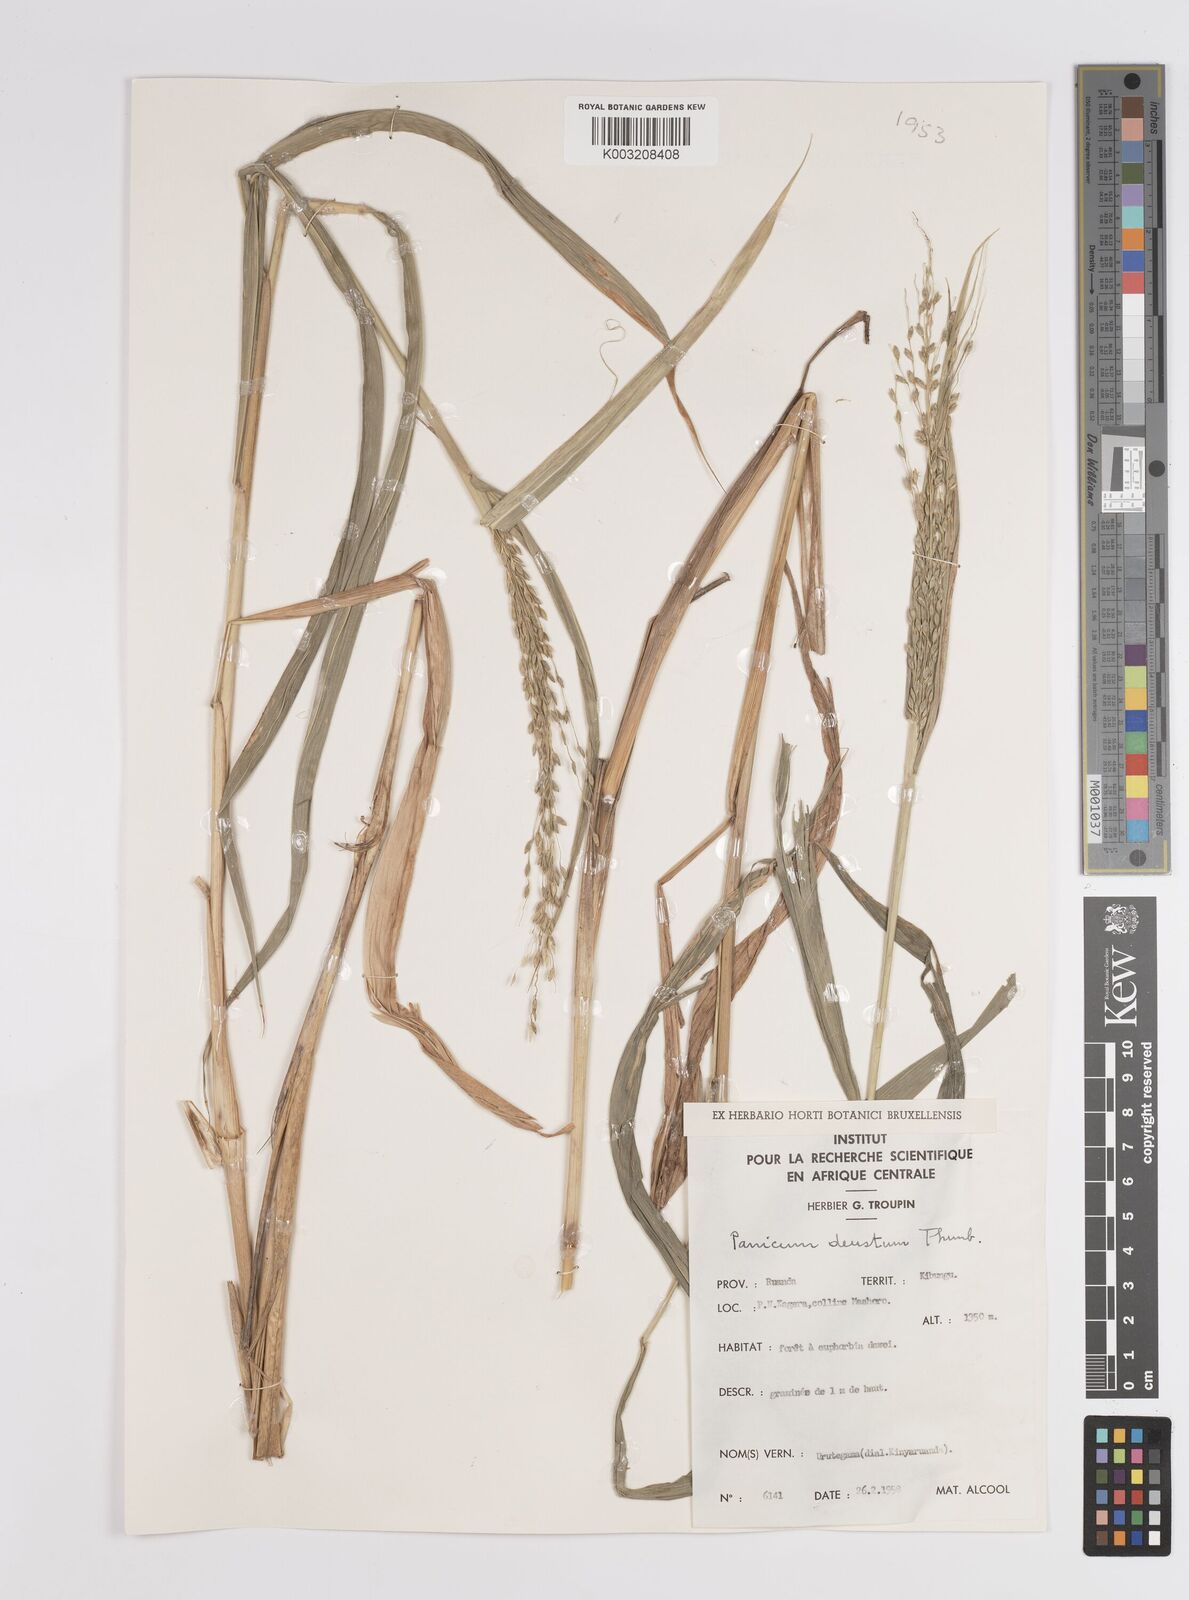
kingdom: Plantae
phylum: Tracheophyta
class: Liliopsida
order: Poales
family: Poaceae
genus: Panicum
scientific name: Panicum deustum
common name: Reed panicum
